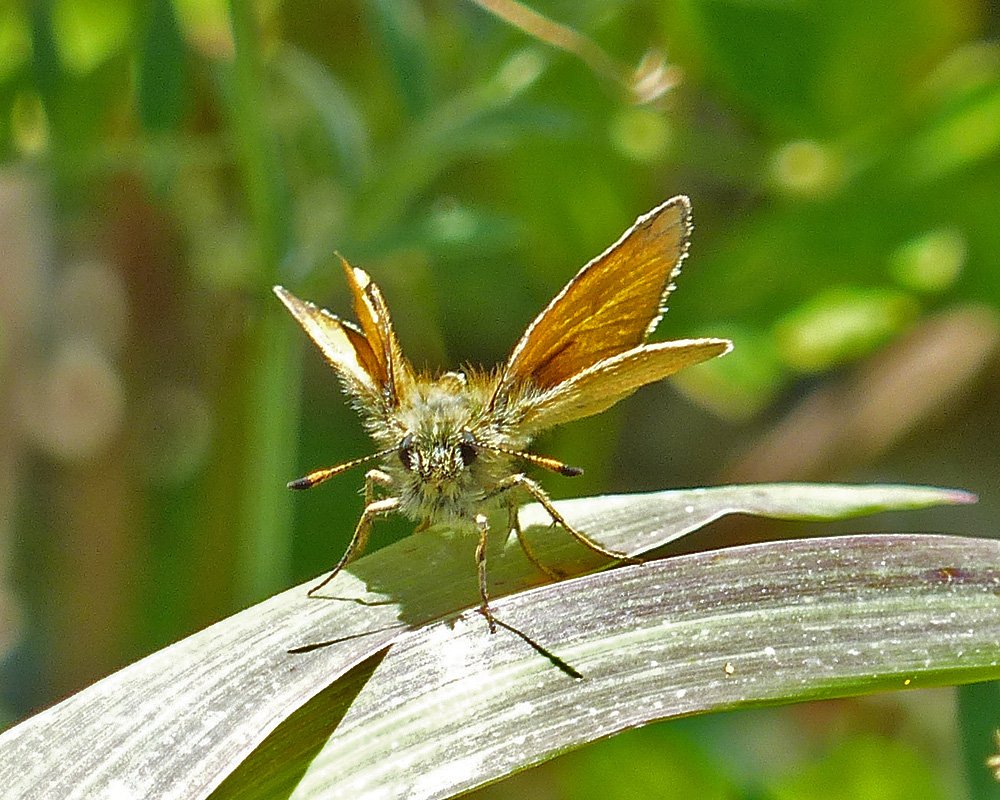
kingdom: Animalia
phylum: Arthropoda
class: Insecta
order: Lepidoptera
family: Hesperiidae
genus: Thymelicus
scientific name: Thymelicus lineola
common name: European Skipper
